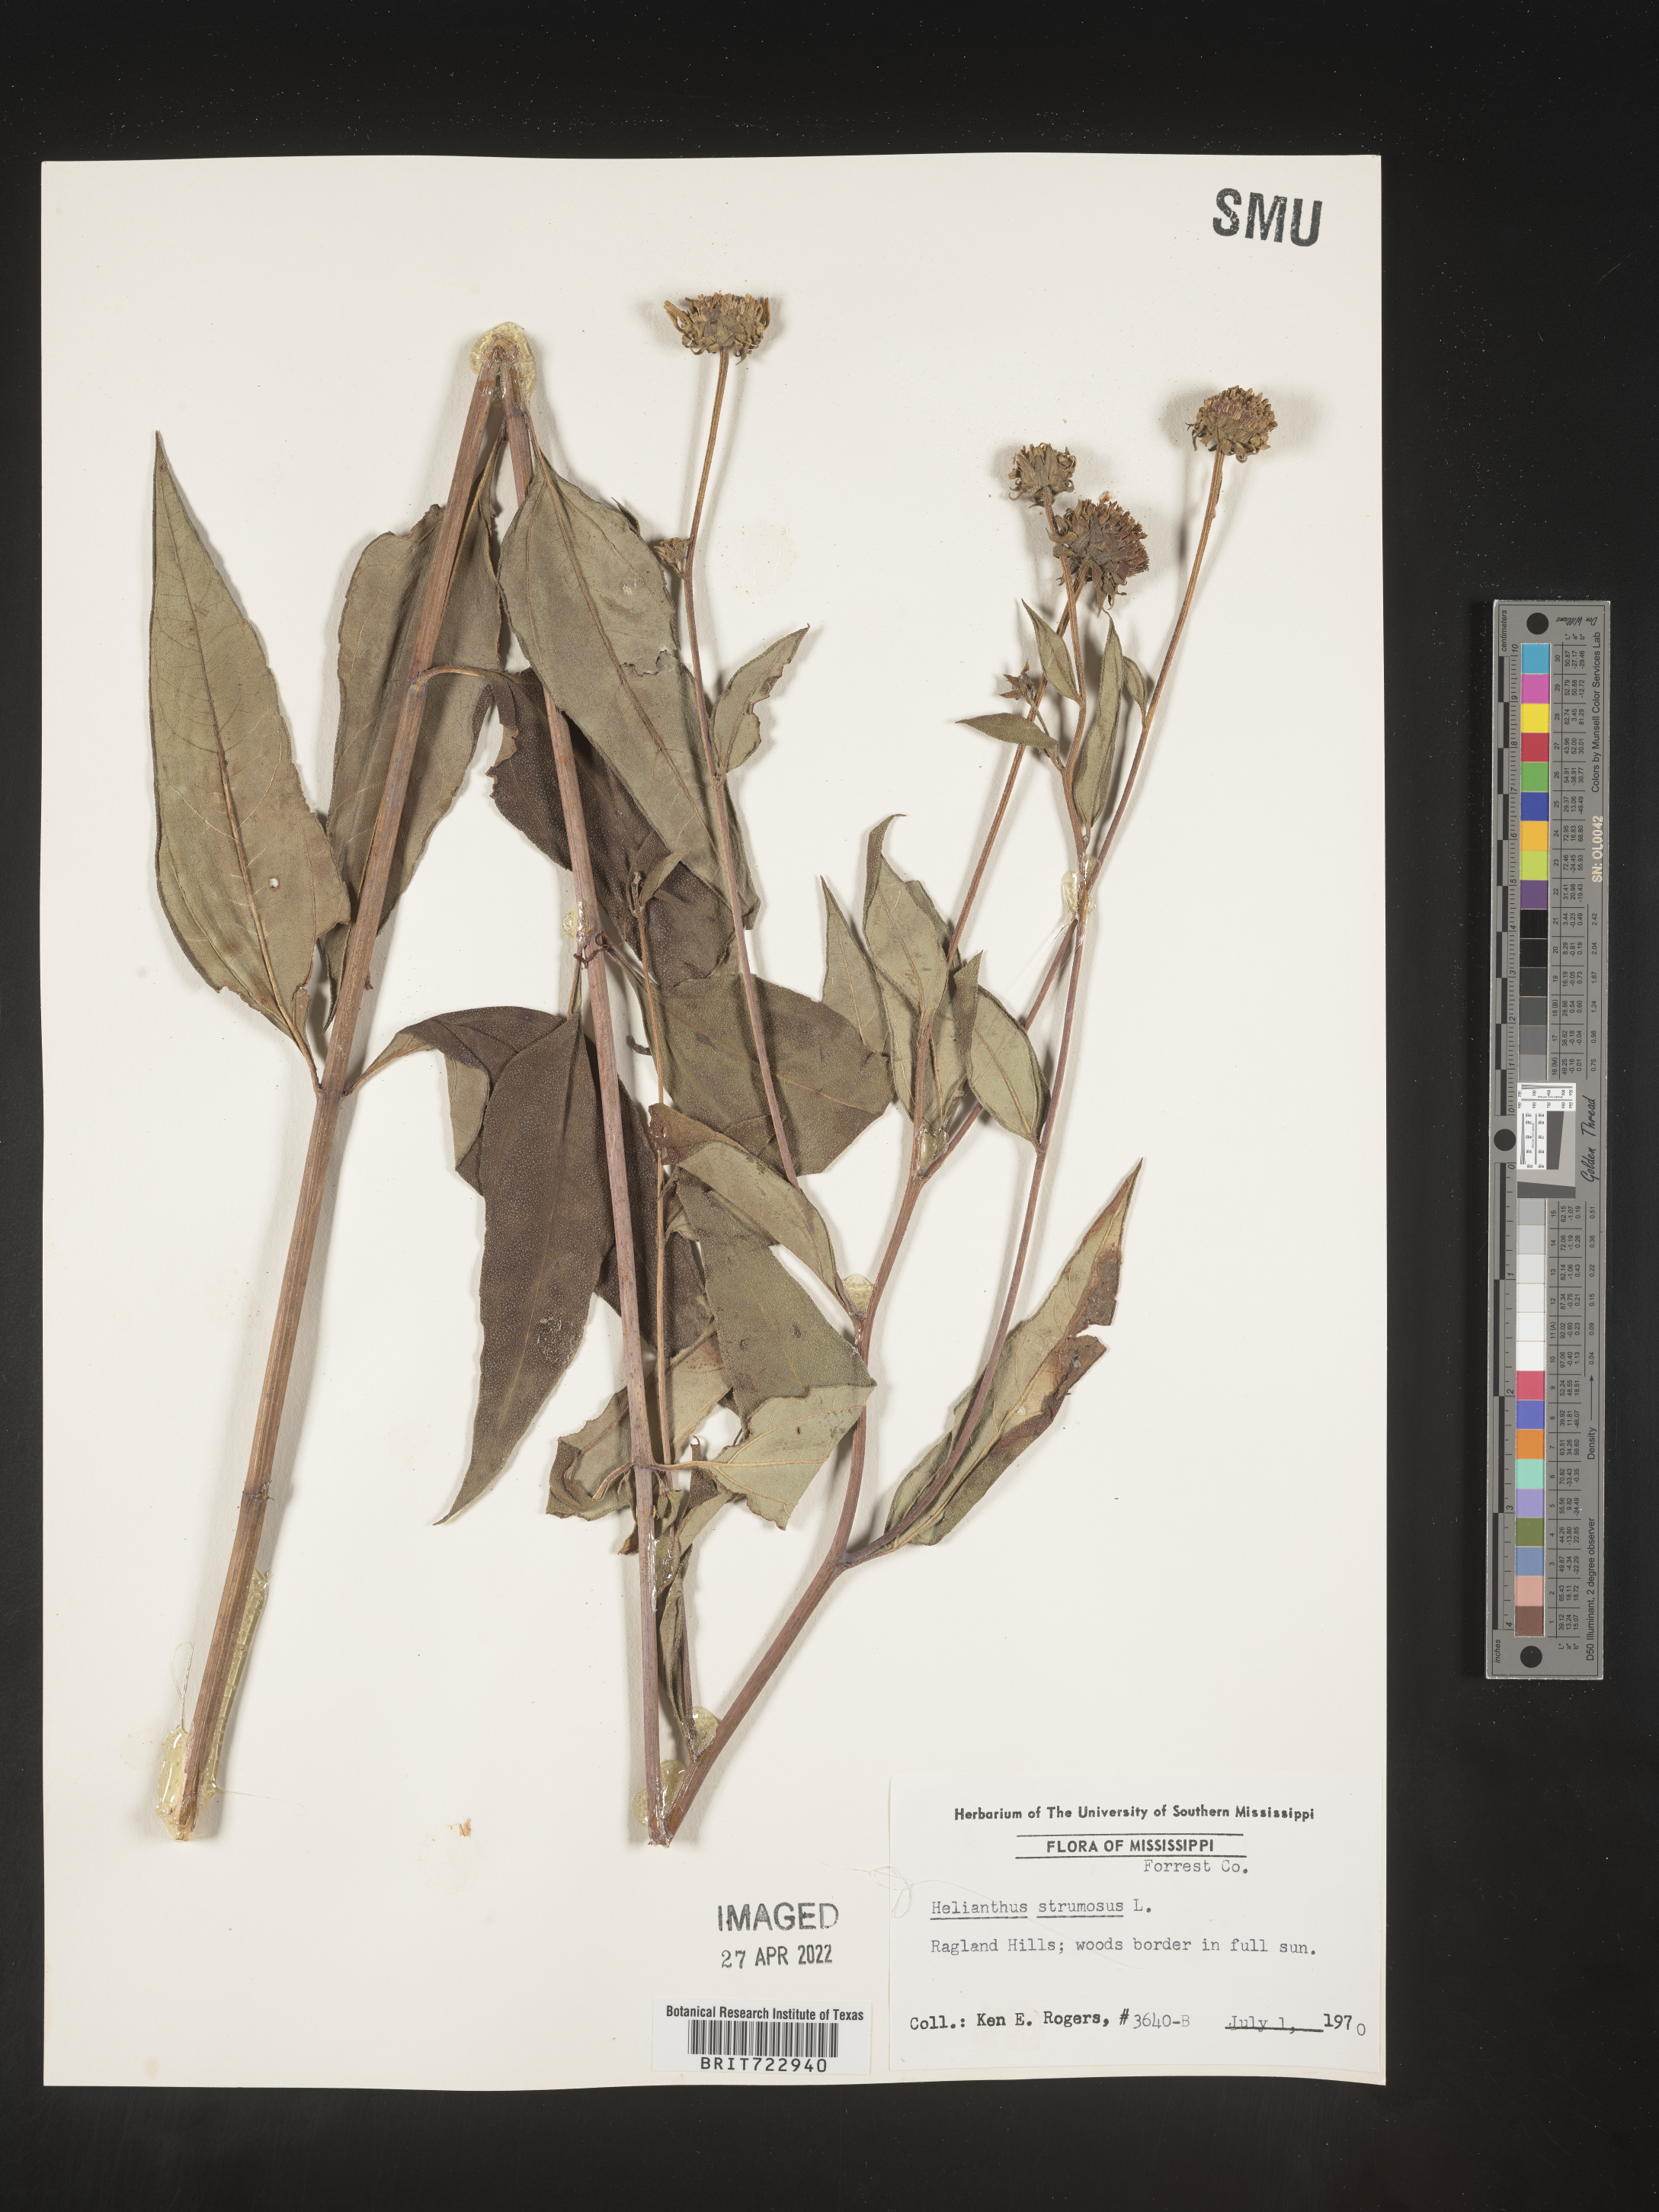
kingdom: Plantae
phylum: Tracheophyta
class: Magnoliopsida
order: Asterales
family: Asteraceae
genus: Helianthus
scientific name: Helianthus strumosus
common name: Pale-leaved sunflower
